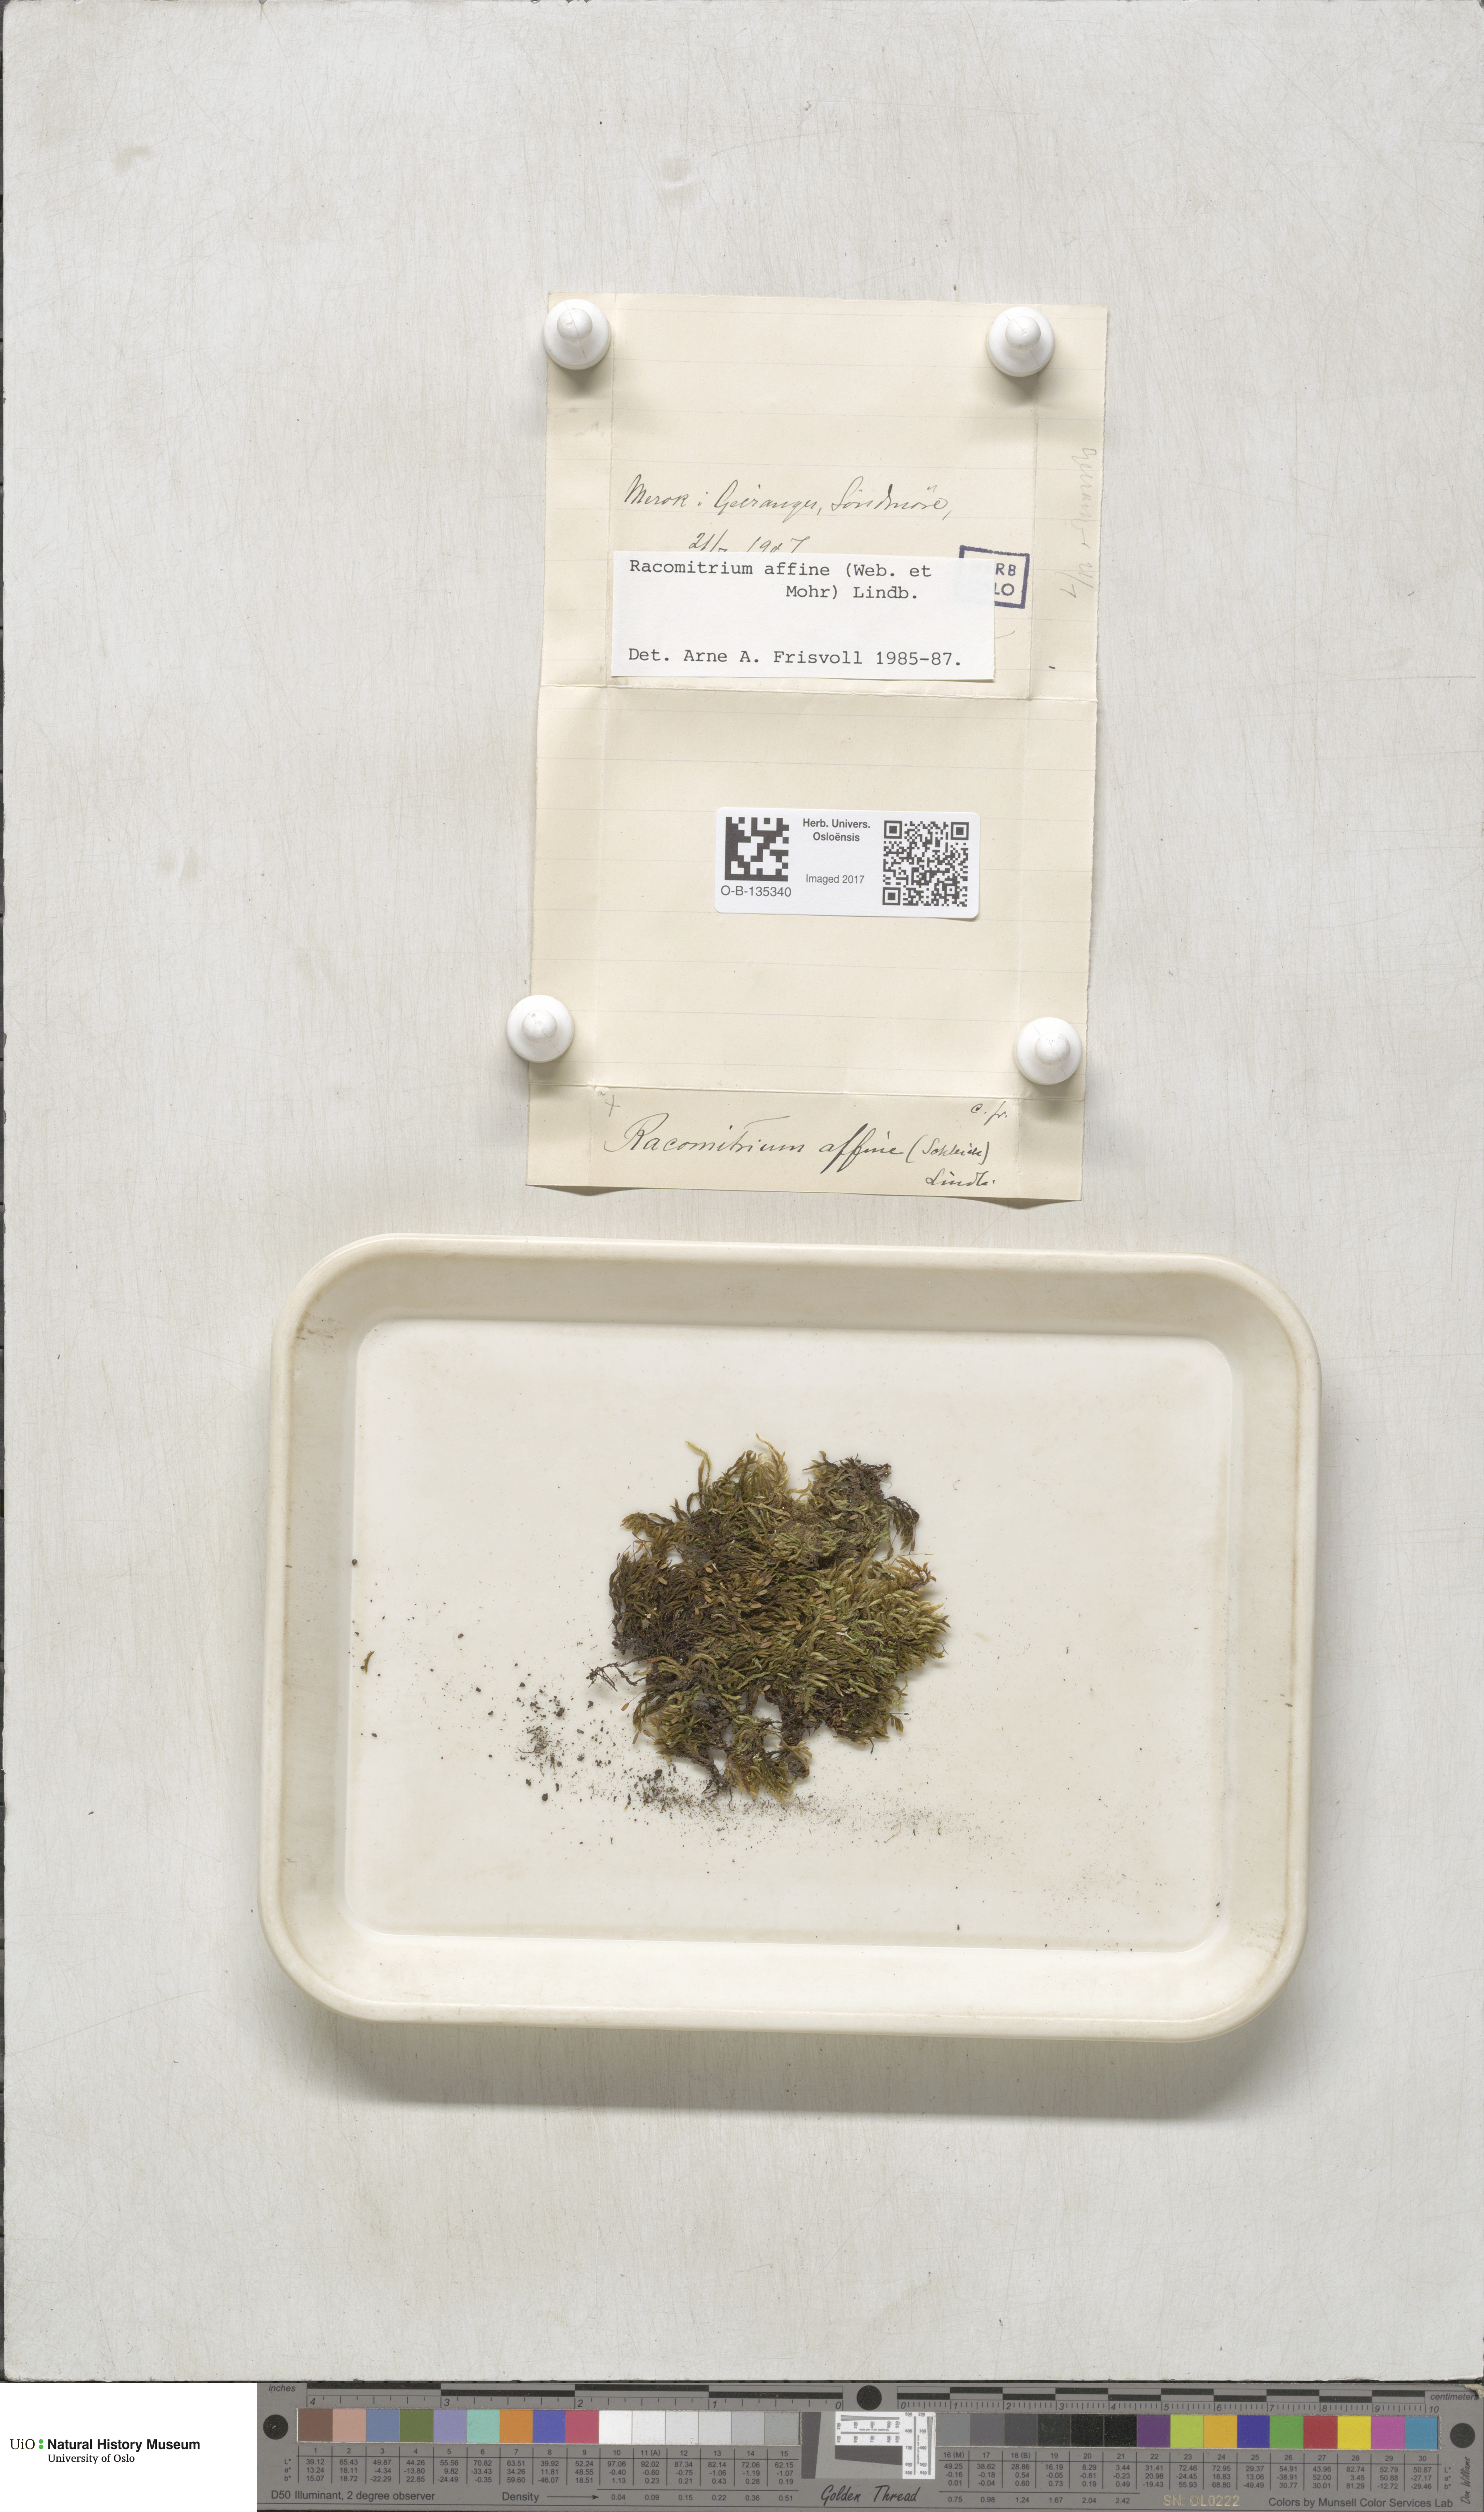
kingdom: Plantae
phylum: Bryophyta
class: Bryopsida
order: Grimmiales
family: Grimmiaceae
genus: Bucklandiella
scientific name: Bucklandiella affinis
